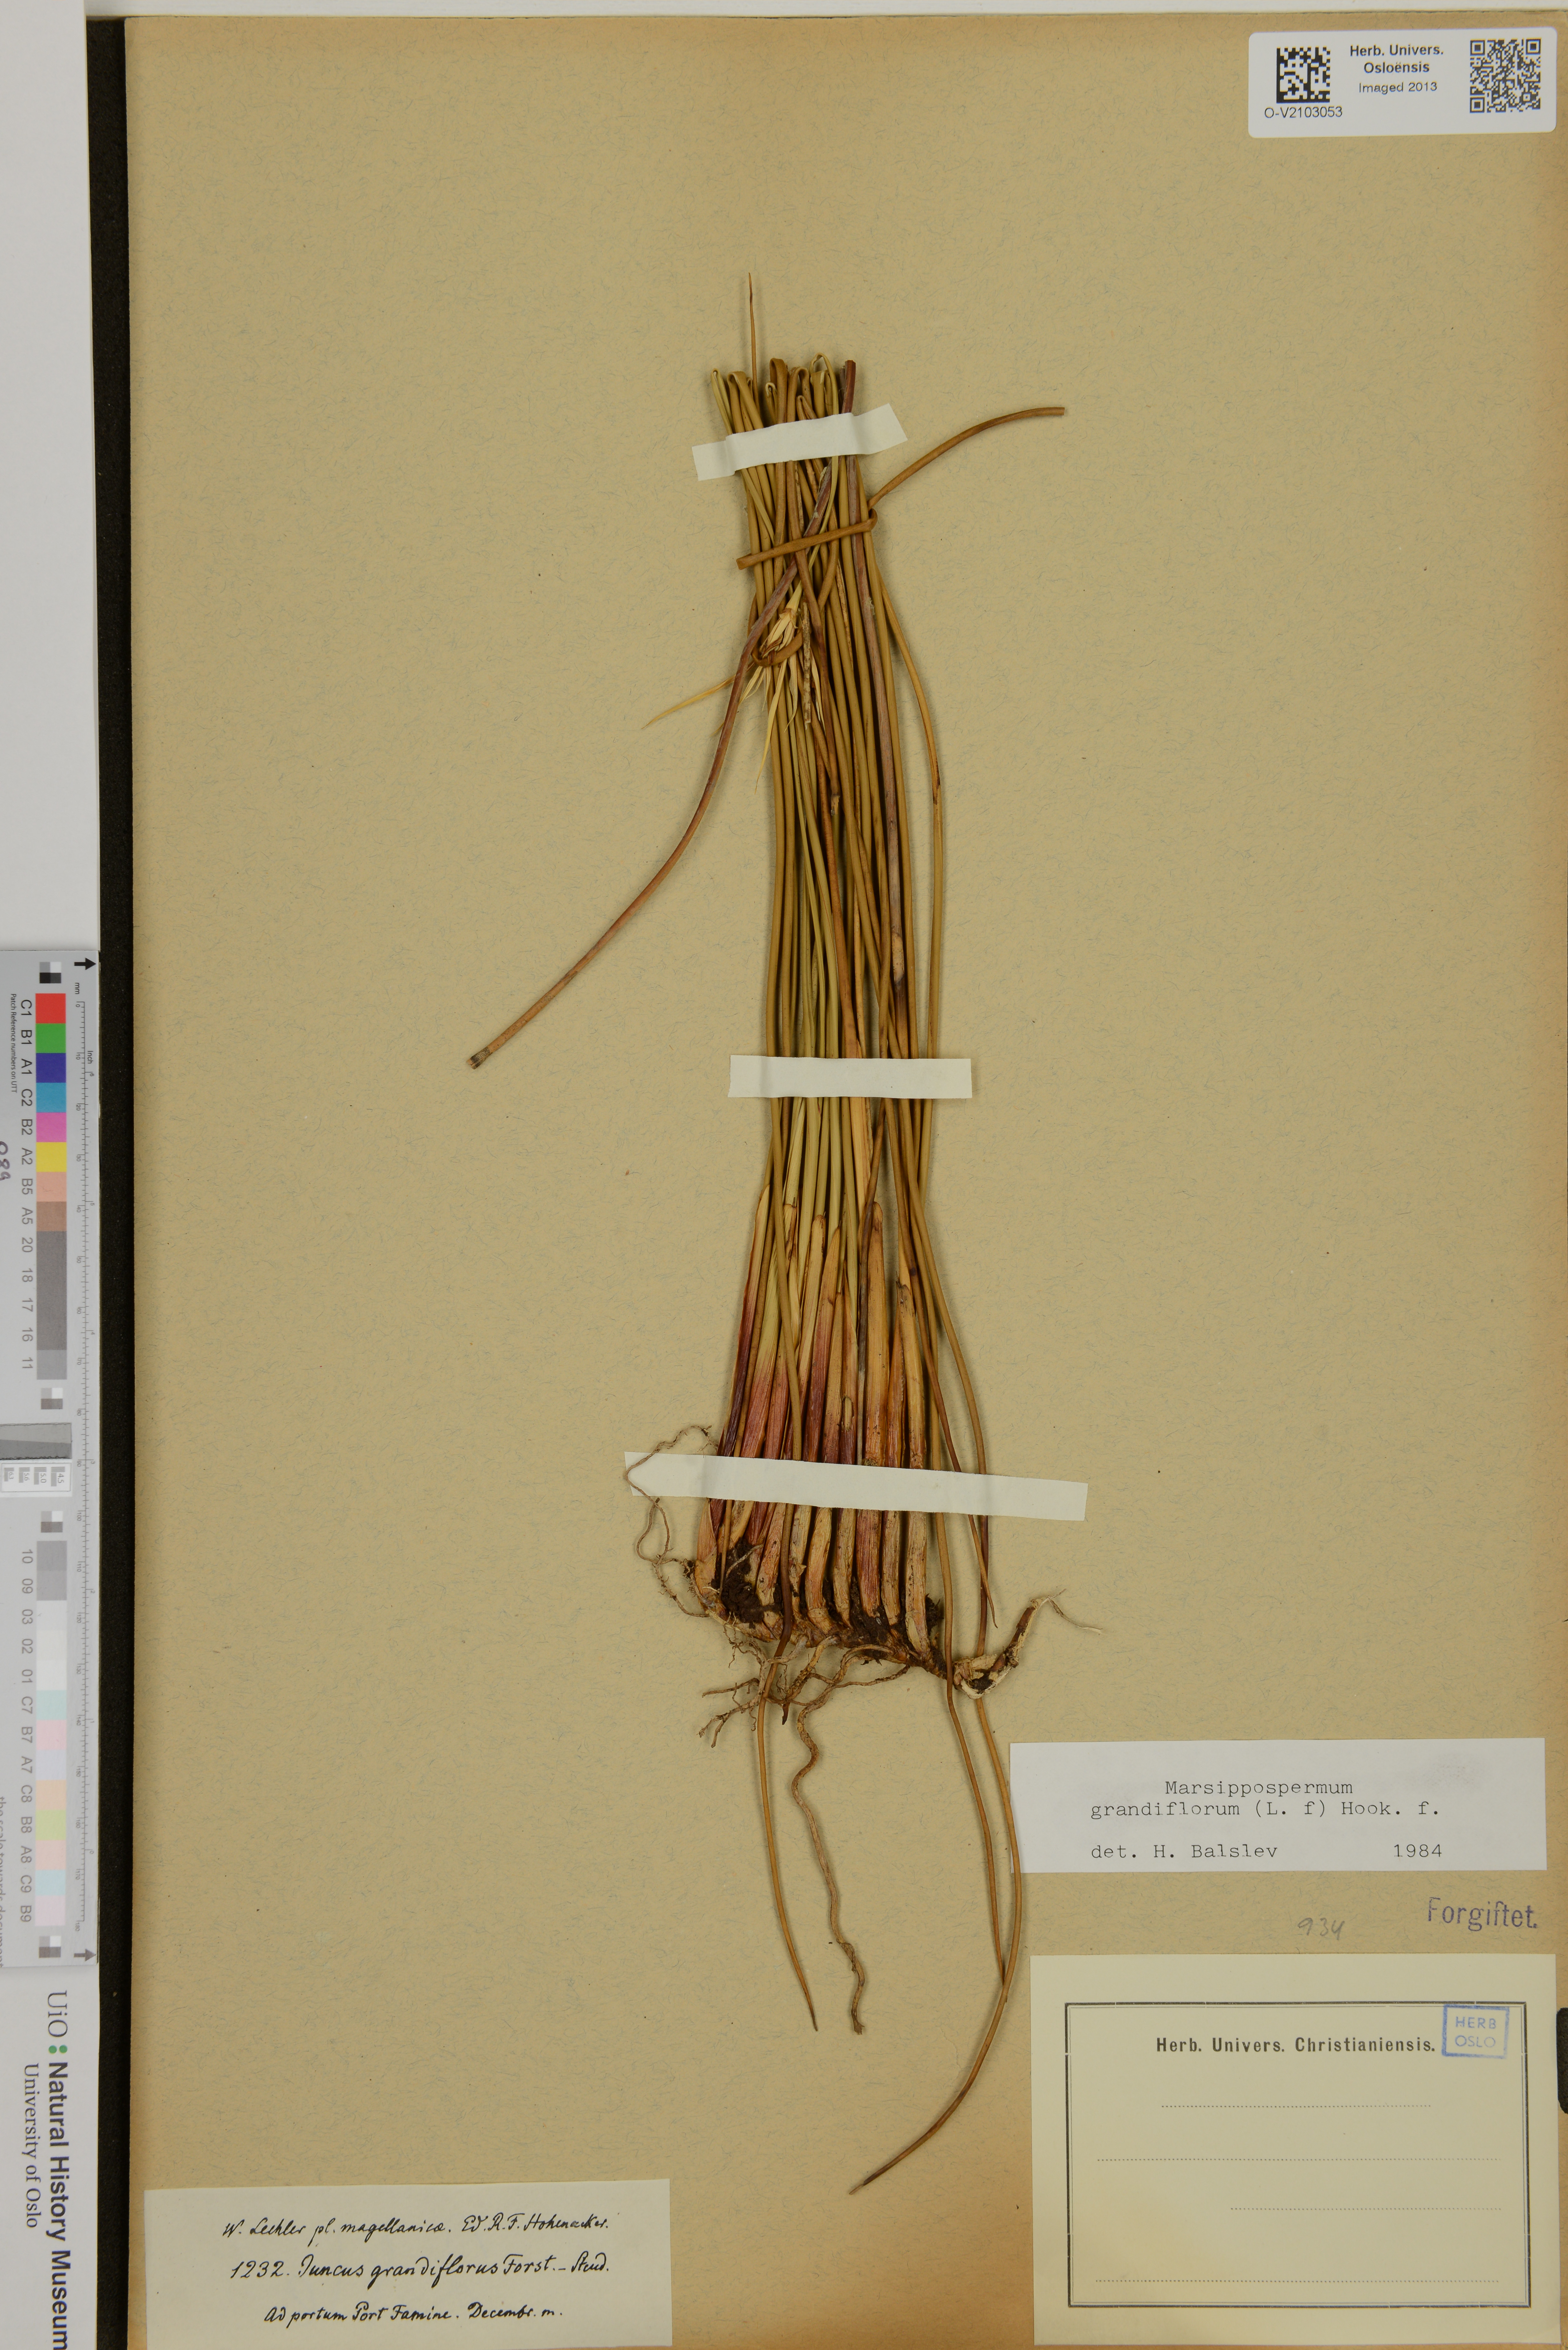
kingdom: Plantae
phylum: Tracheophyta
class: Liliopsida
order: Poales
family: Juncaceae
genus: Marsippospermum
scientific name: Marsippospermum grandiflorum
